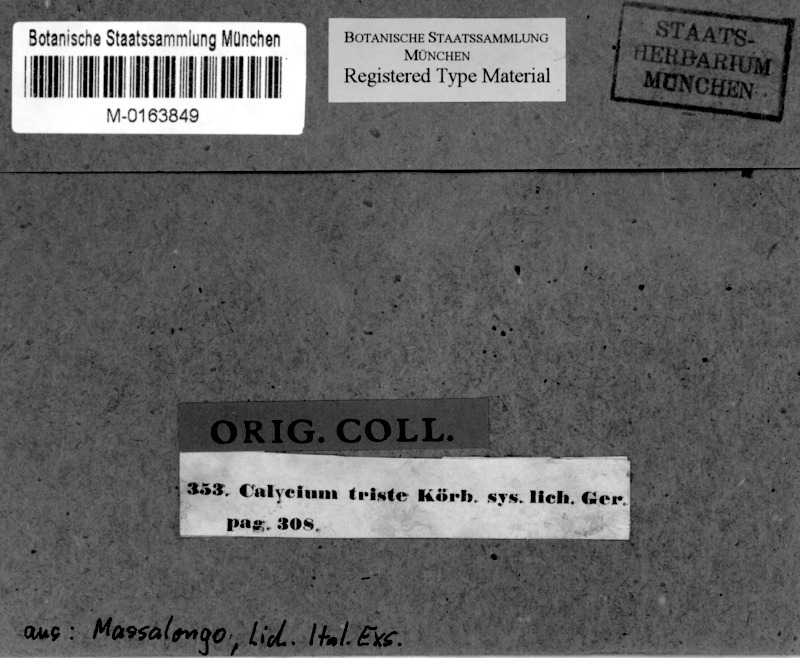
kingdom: Fungi
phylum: Ascomycota
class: Eurotiomycetes
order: Mycocaliciales
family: Mycocaliciaceae
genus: Chaenothecopsis
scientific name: Chaenothecopsis
